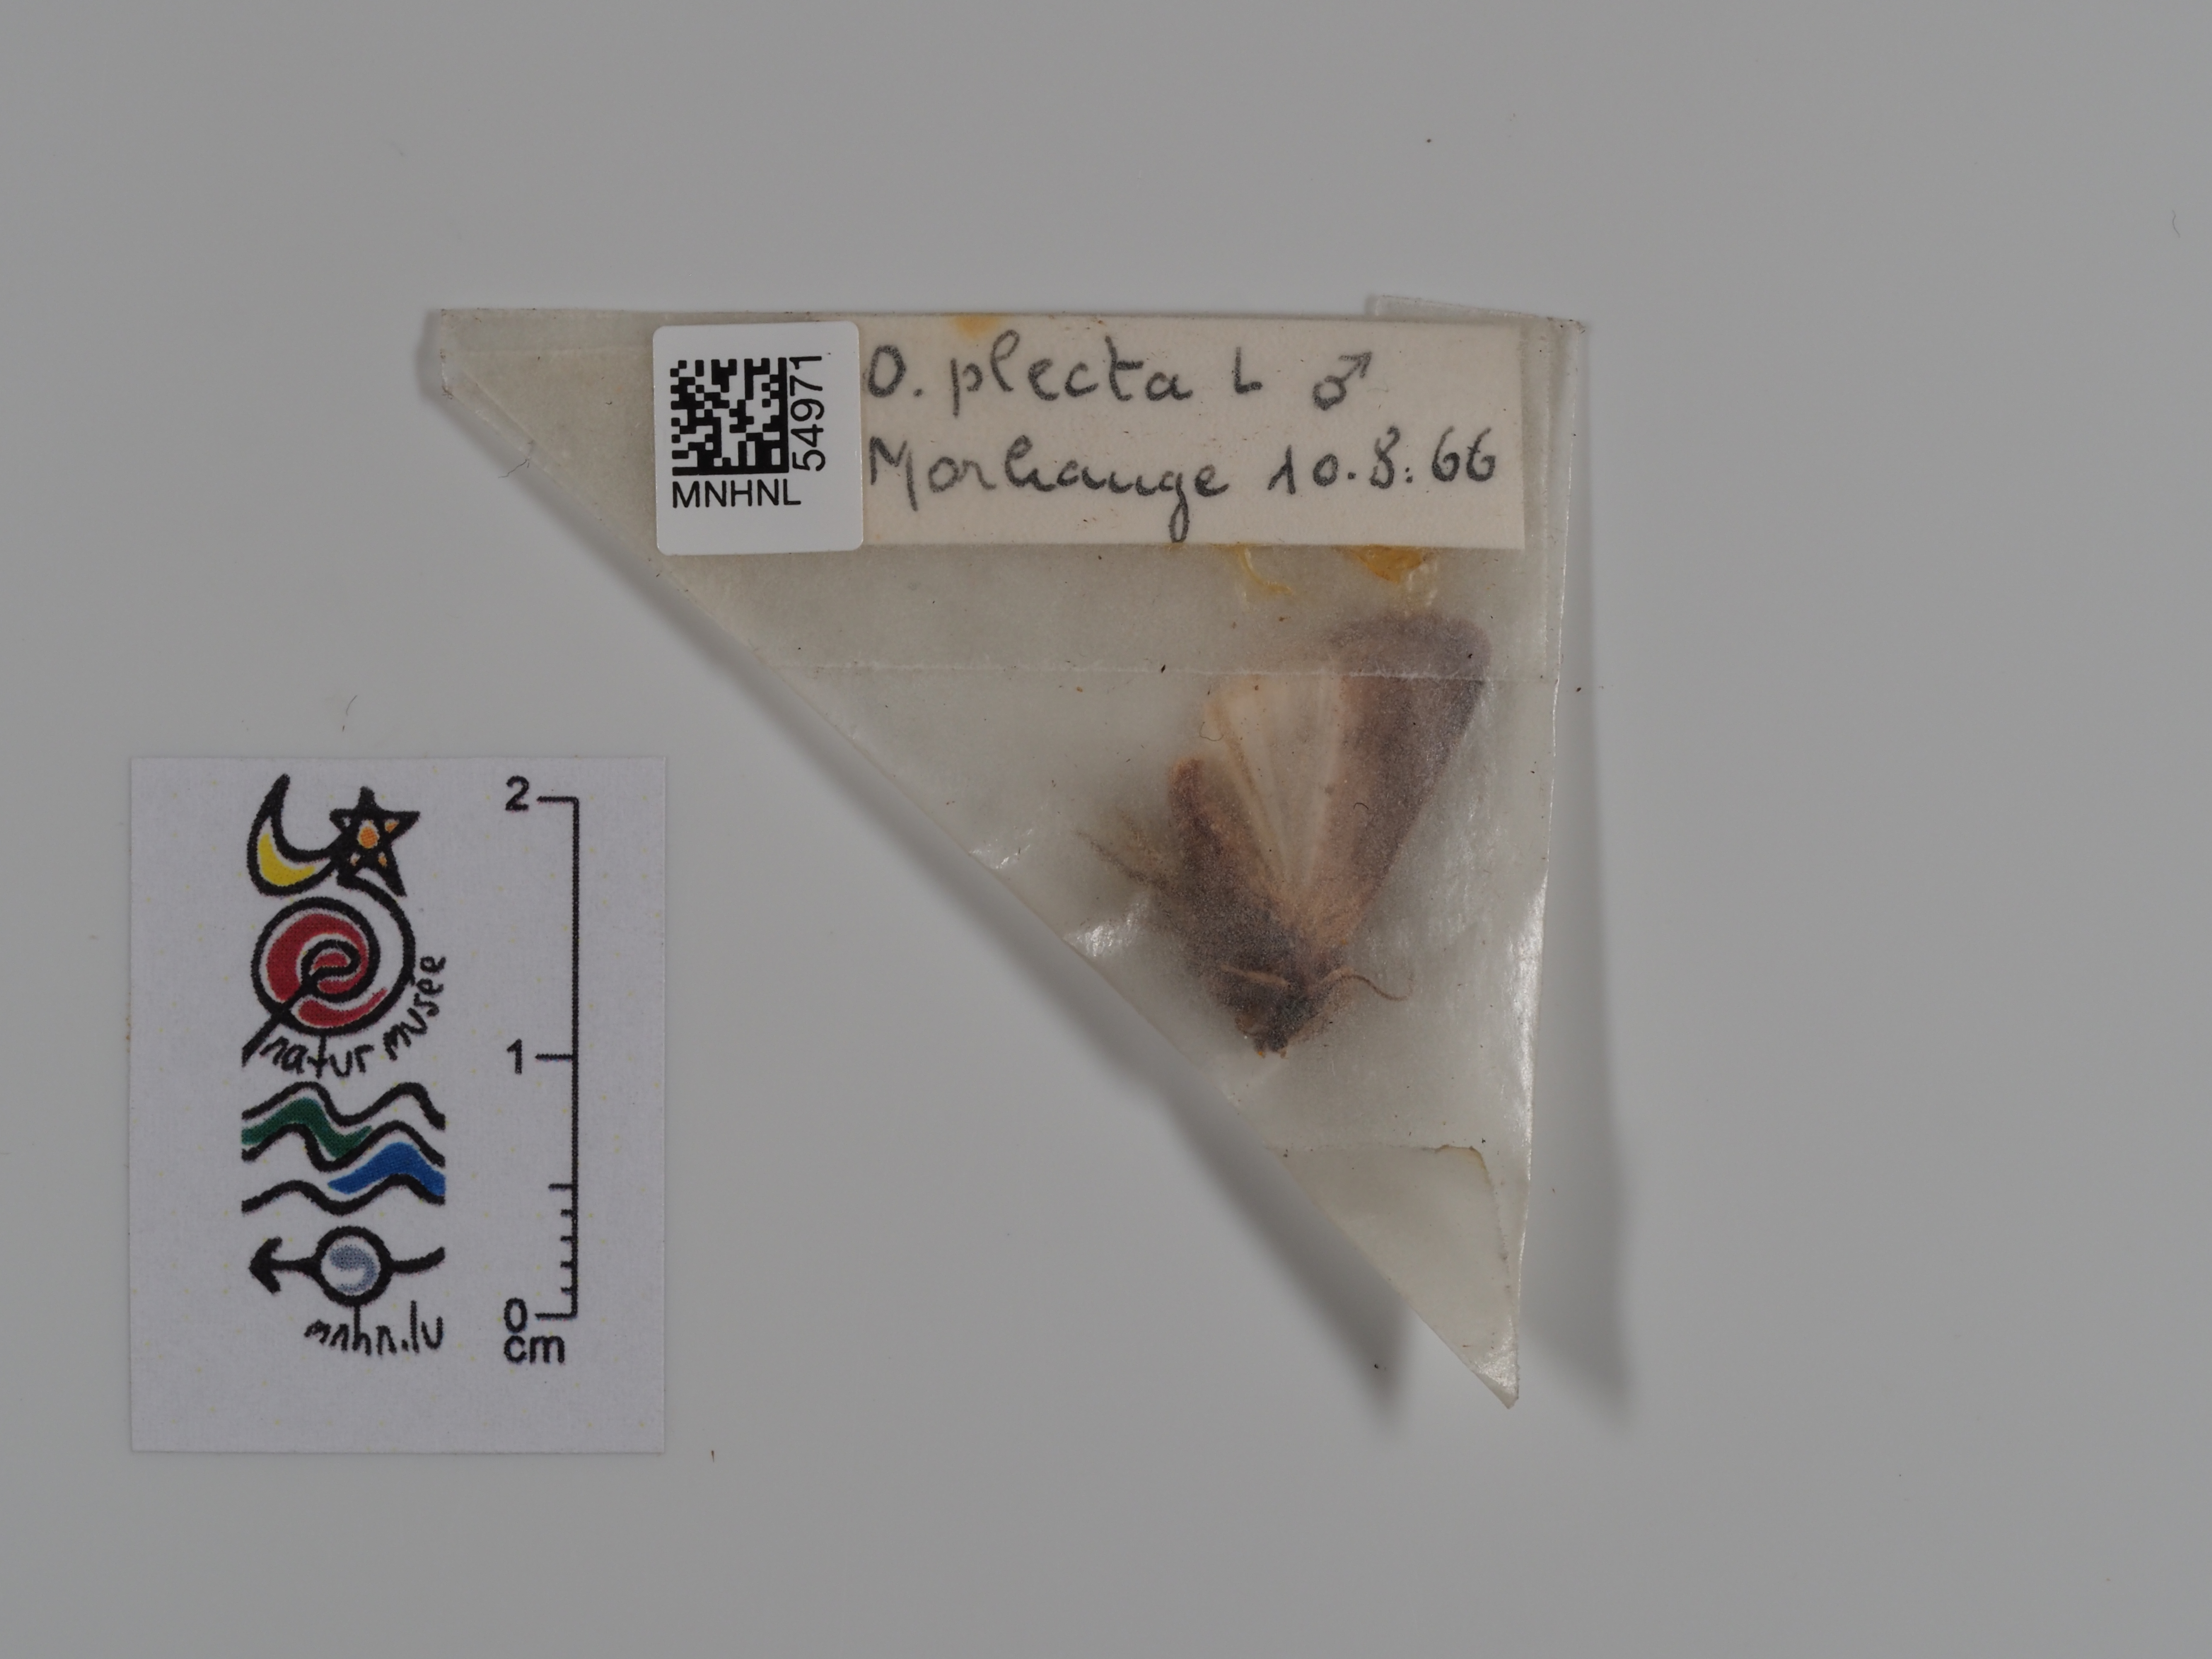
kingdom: Animalia
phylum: Arthropoda
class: Insecta
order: Lepidoptera
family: Noctuidae
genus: Ochropleura
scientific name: Ochropleura plecta
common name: Flame shoulder
